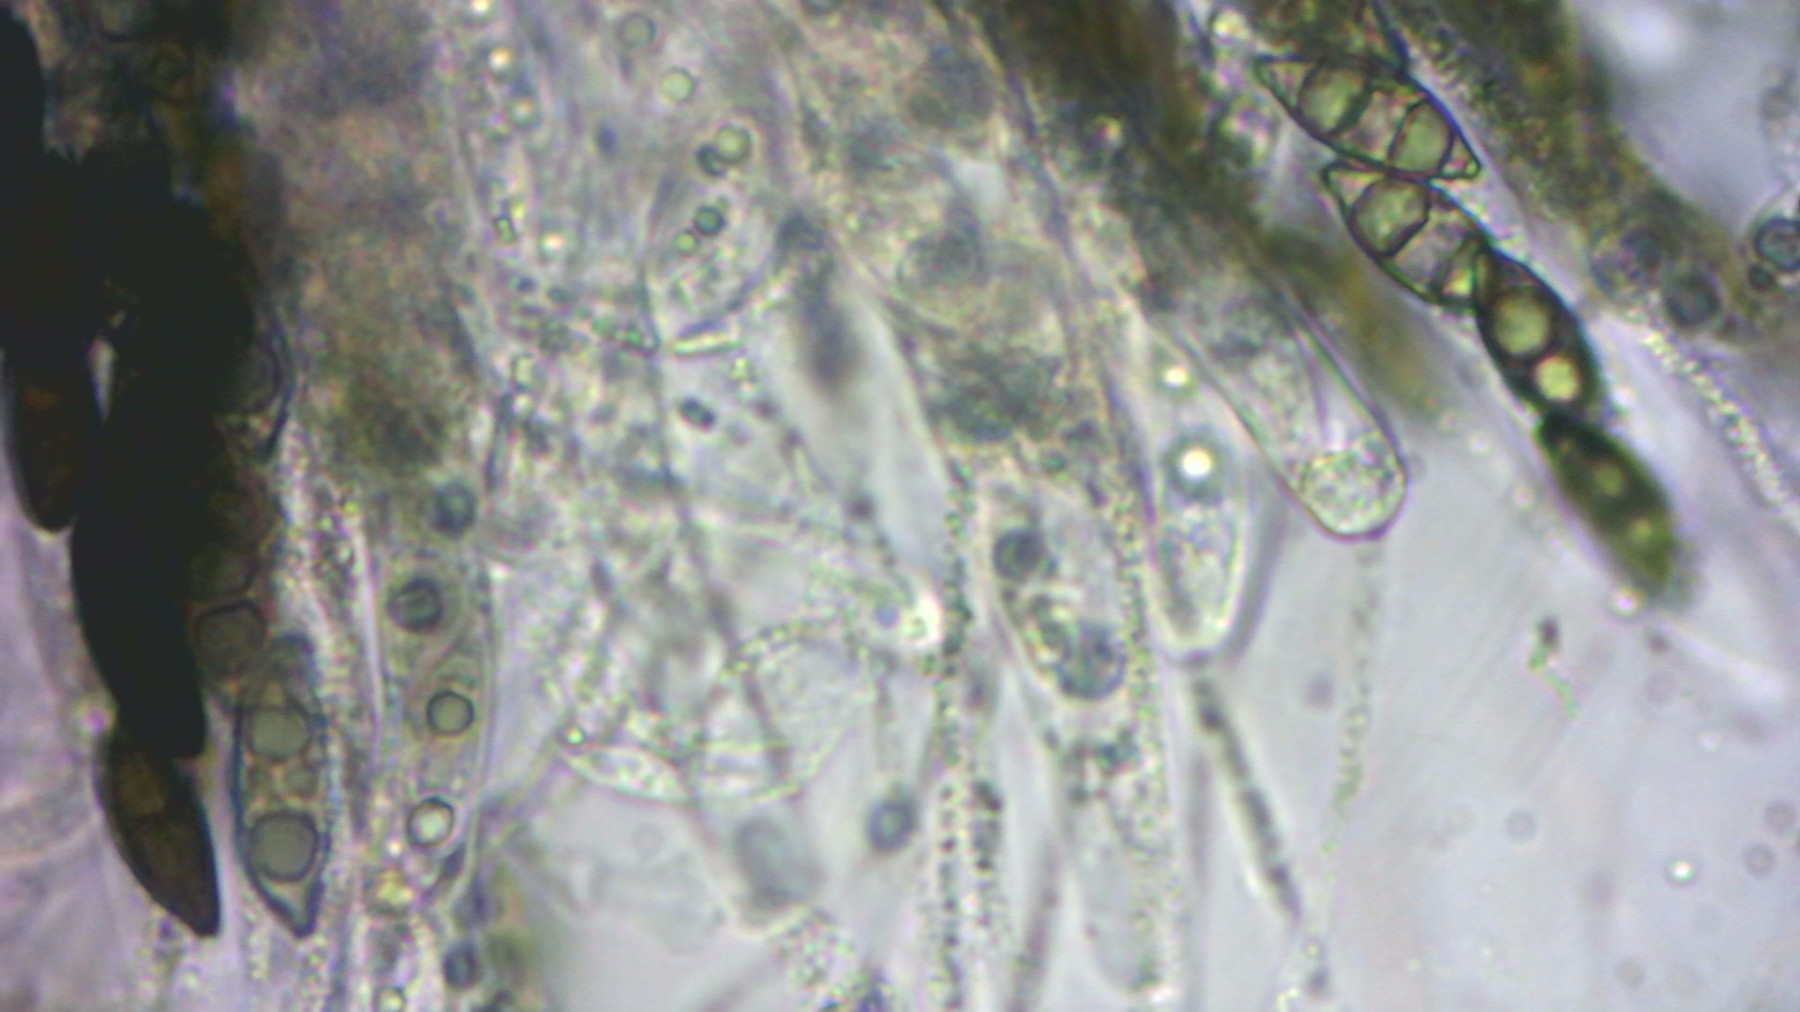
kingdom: Fungi
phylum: Ascomycota
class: Sordariomycetes
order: Xylariales
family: Xylariaceae
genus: Rosellinia
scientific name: Rosellinia
